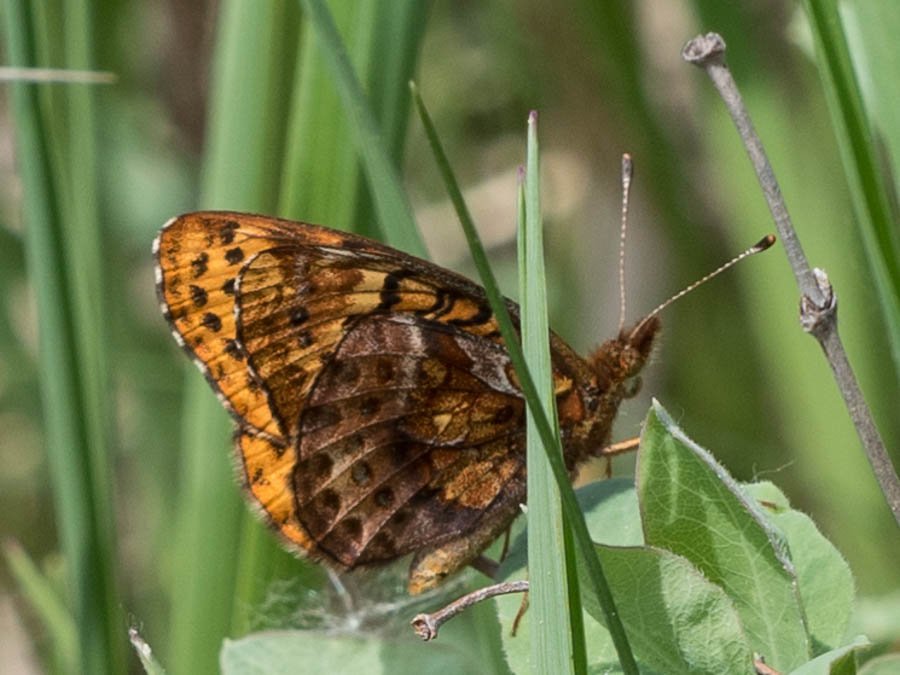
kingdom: Animalia
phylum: Arthropoda
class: Insecta
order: Lepidoptera
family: Nymphalidae
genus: Clossiana
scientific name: Clossiana toddi
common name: Meadow Fritillary
